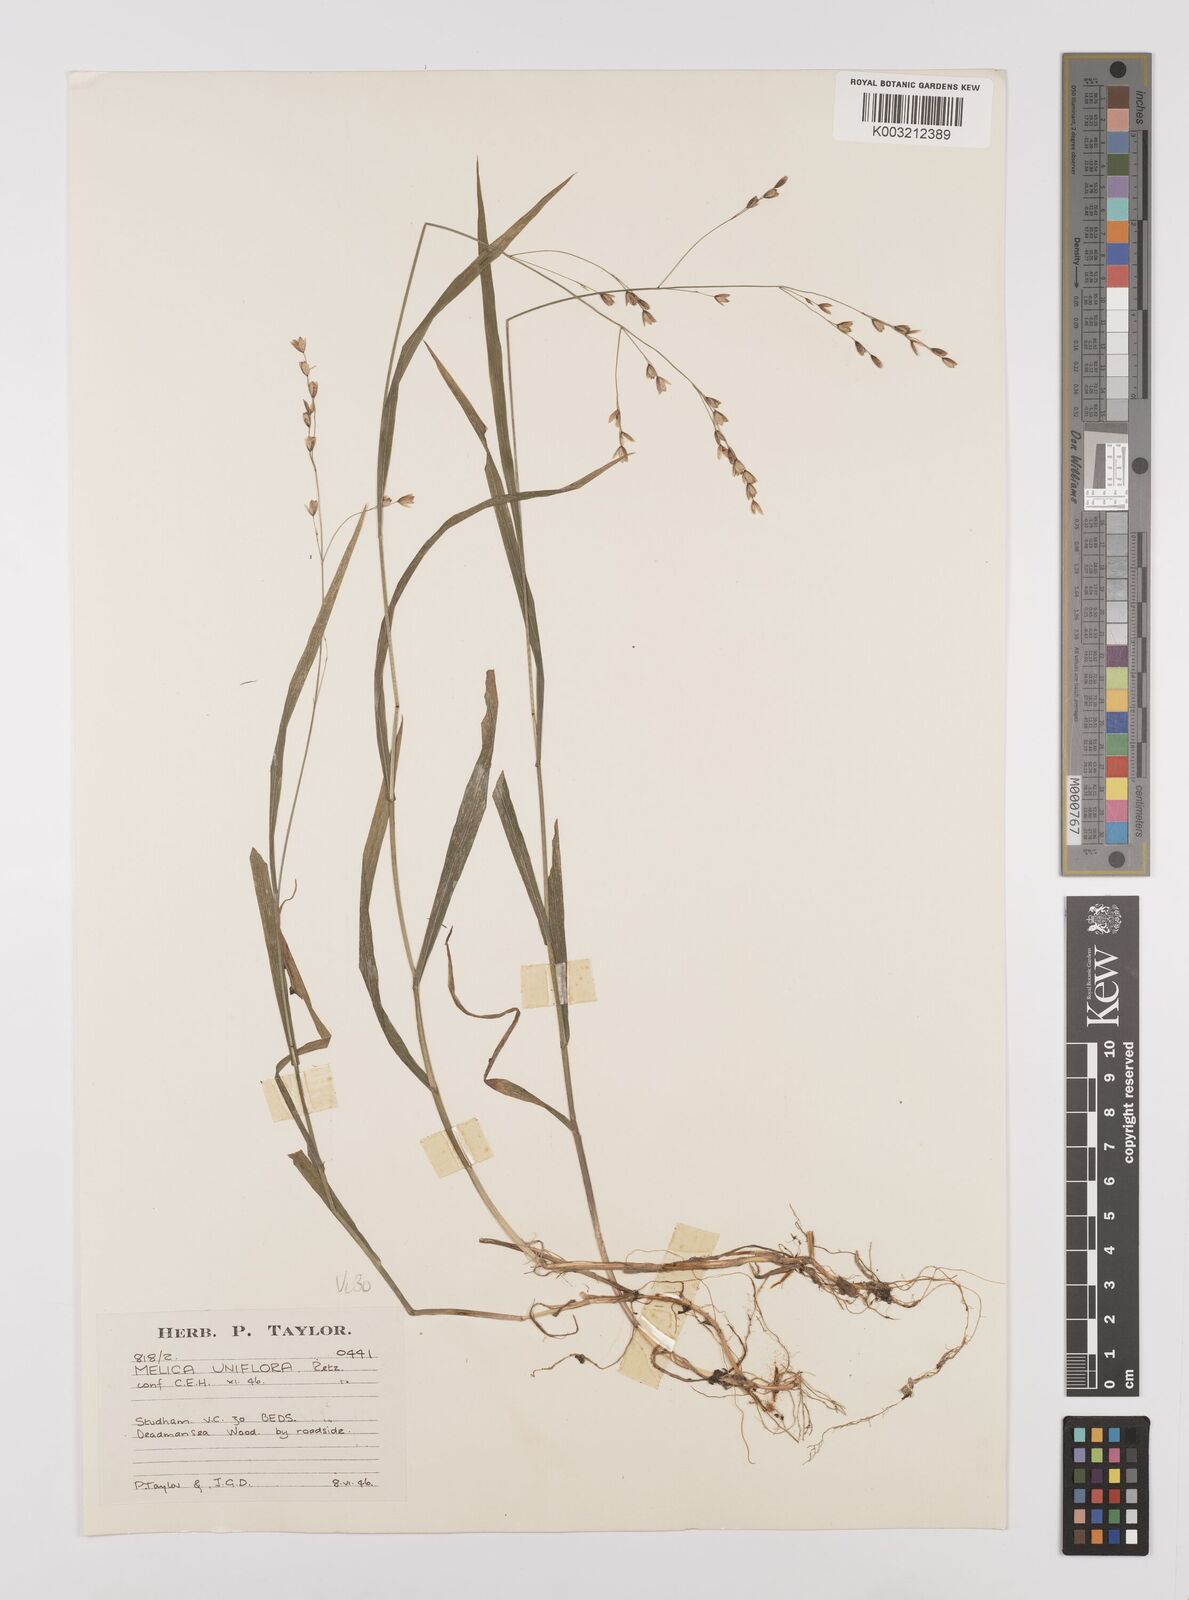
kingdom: Plantae
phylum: Tracheophyta
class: Liliopsida
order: Poales
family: Poaceae
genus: Melica
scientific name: Melica uniflora
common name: Wood melick
